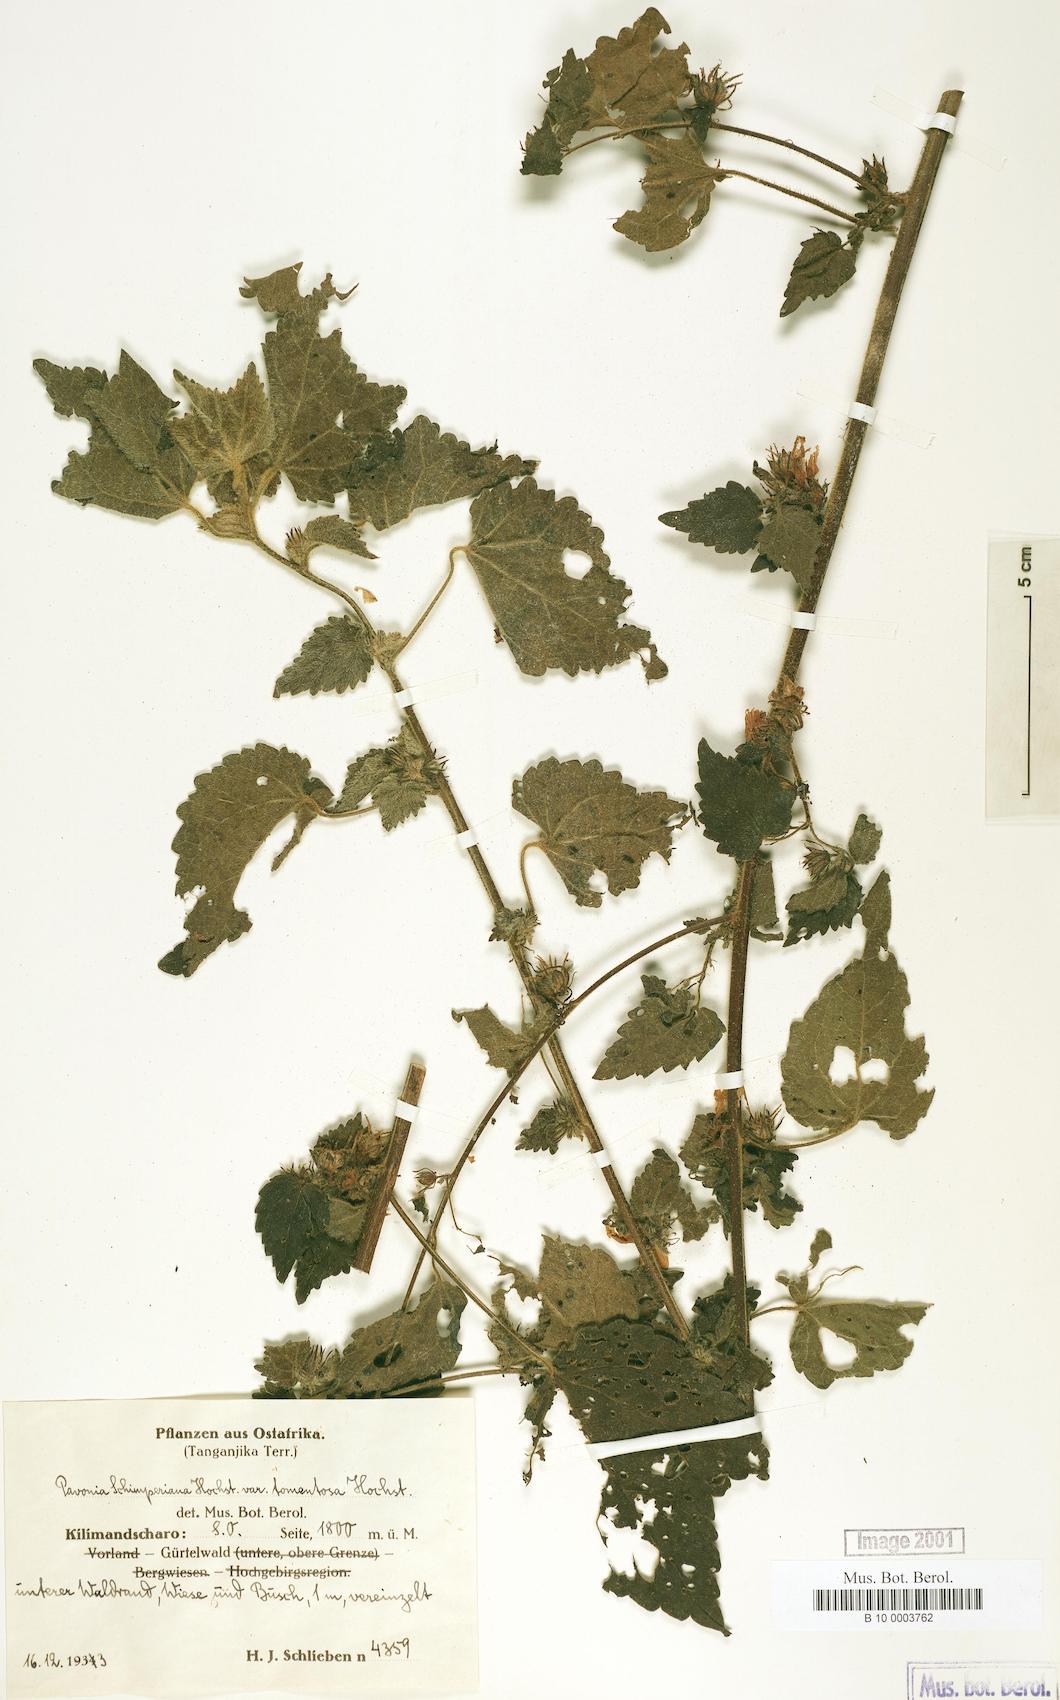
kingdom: Plantae
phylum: Tracheophyta
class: Magnoliopsida
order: Malvales
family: Malvaceae
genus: Pavonia
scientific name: Pavonia urens
